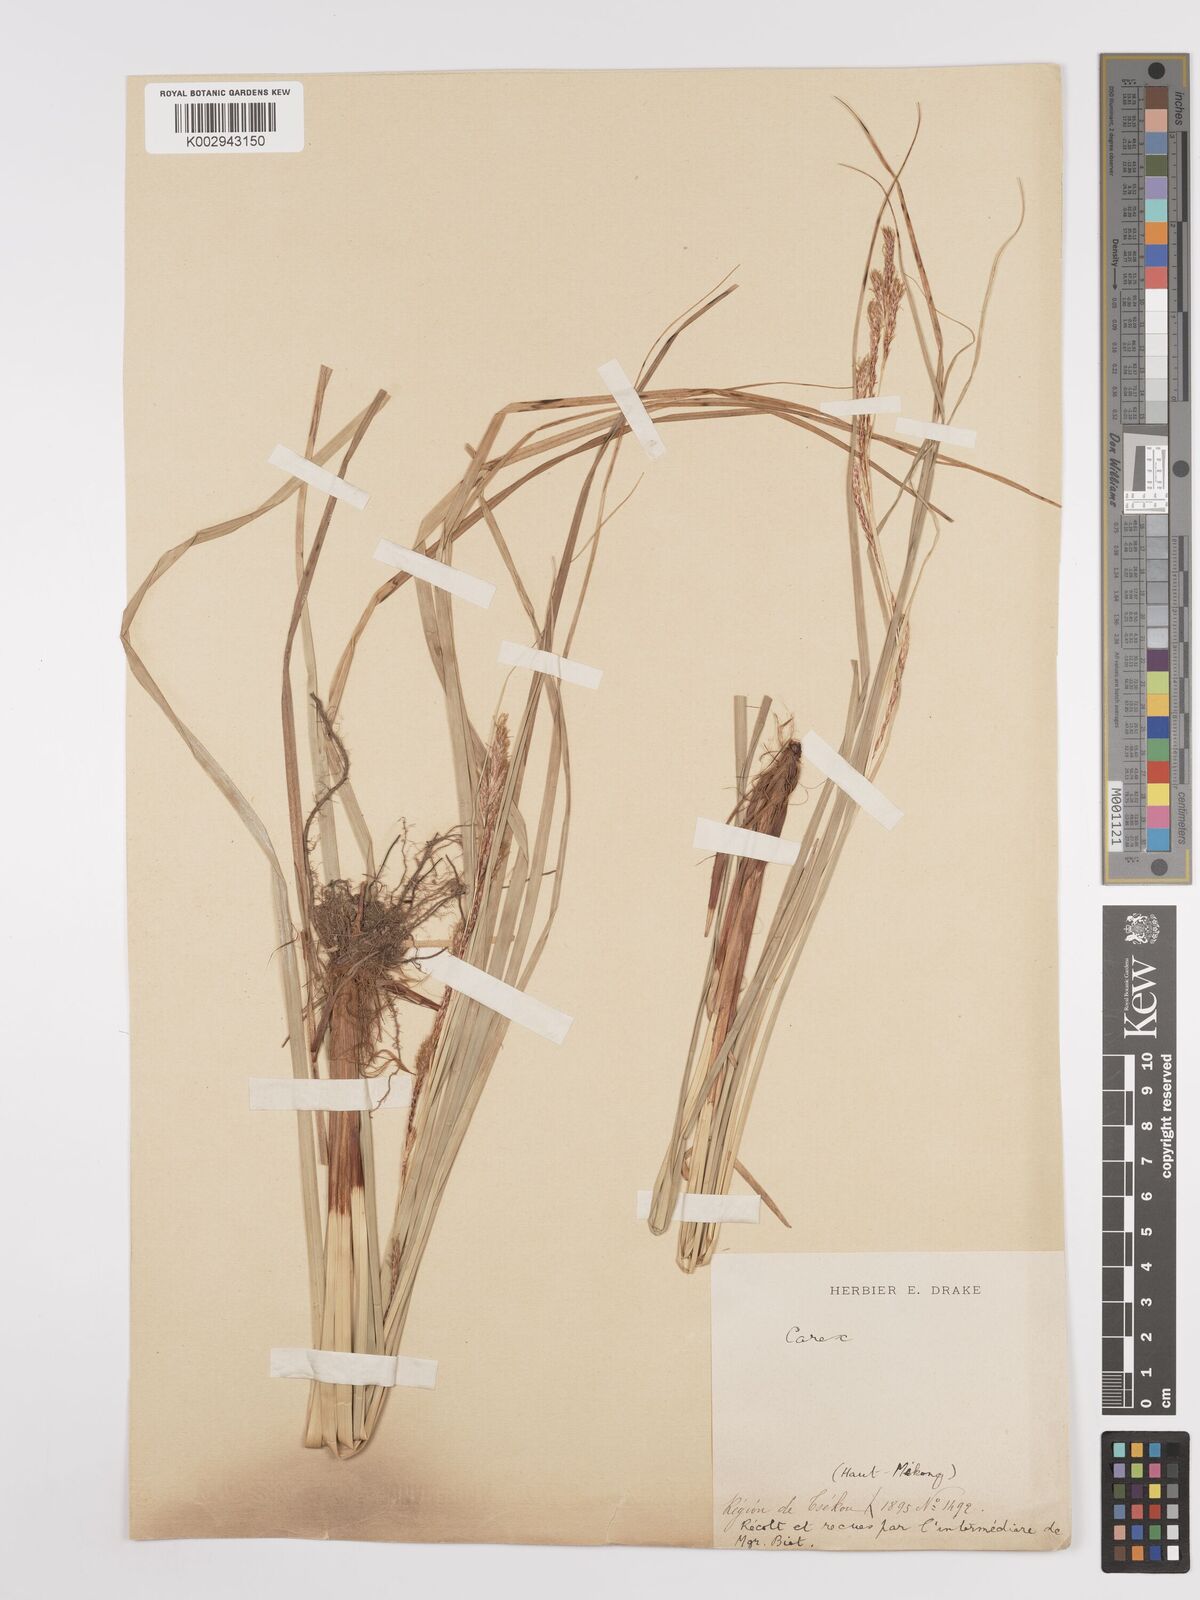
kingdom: Plantae
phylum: Tracheophyta
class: Liliopsida
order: Poales
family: Cyperaceae
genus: Carex
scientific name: Carex
